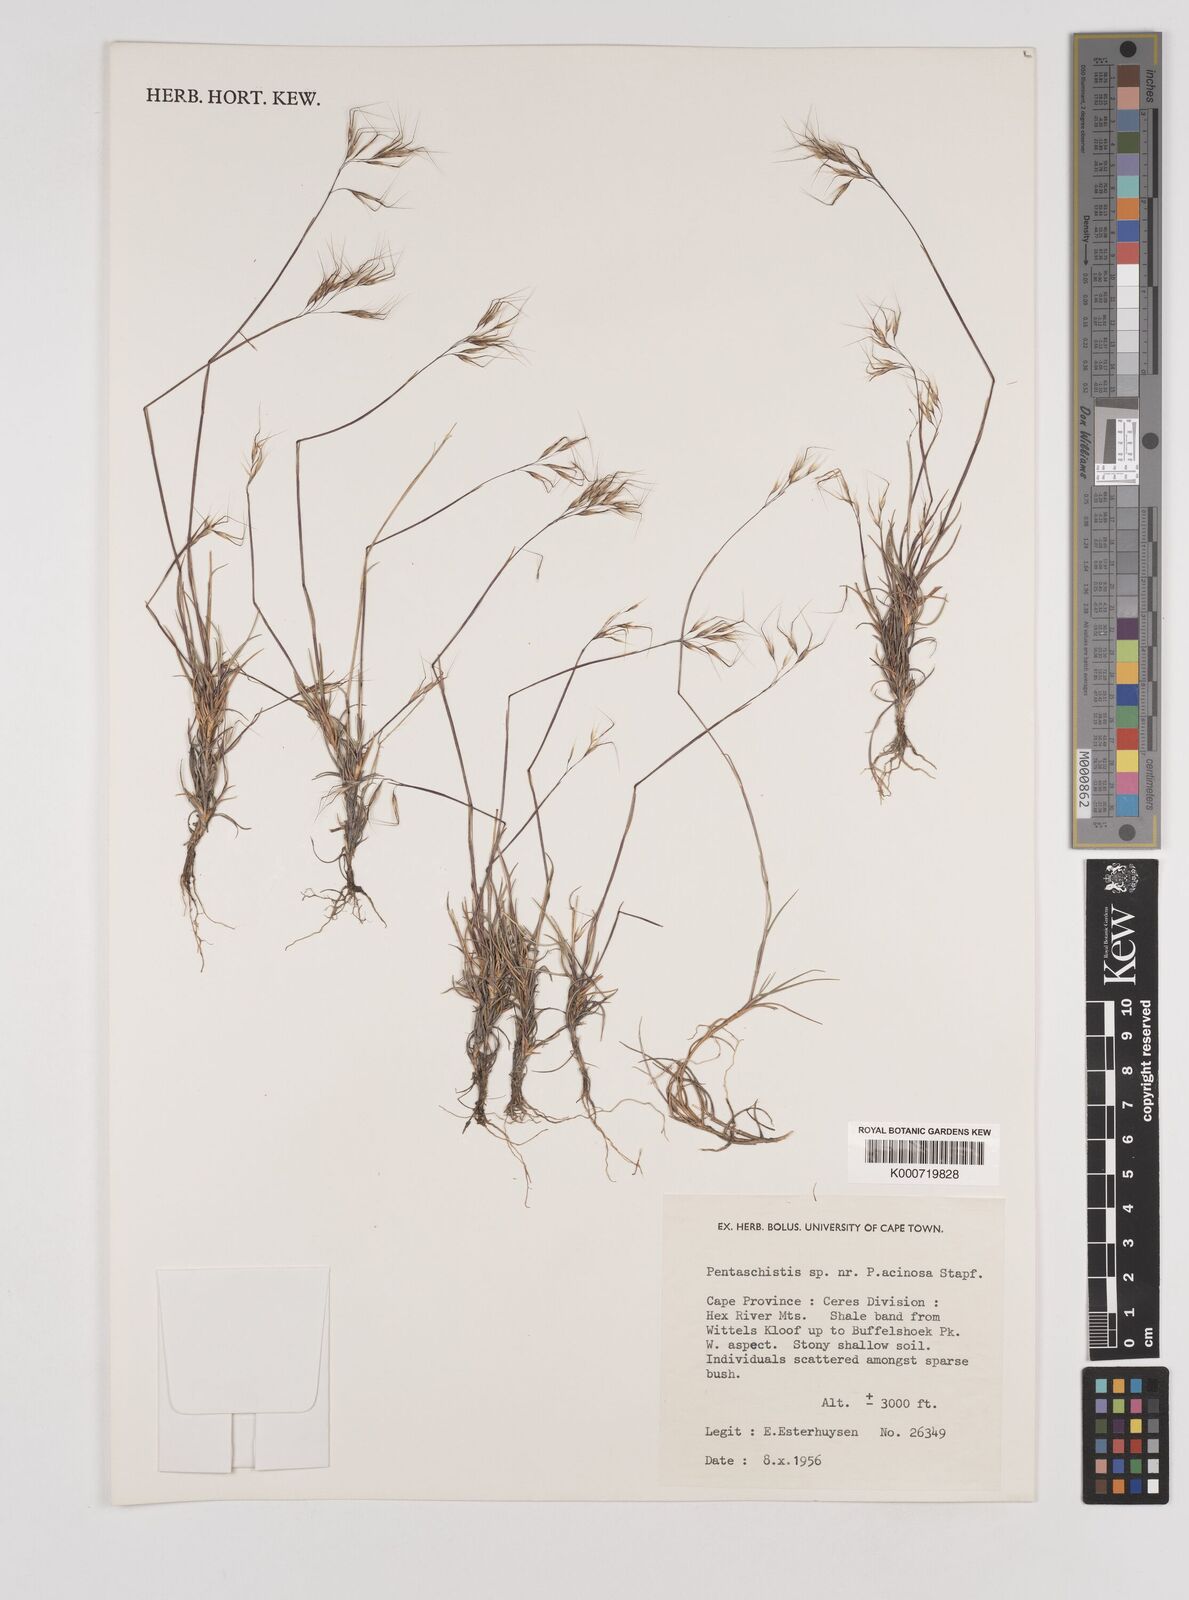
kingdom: Plantae
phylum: Tracheophyta
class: Liliopsida
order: Poales
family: Poaceae
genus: Pentaschistis
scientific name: Pentaschistis
